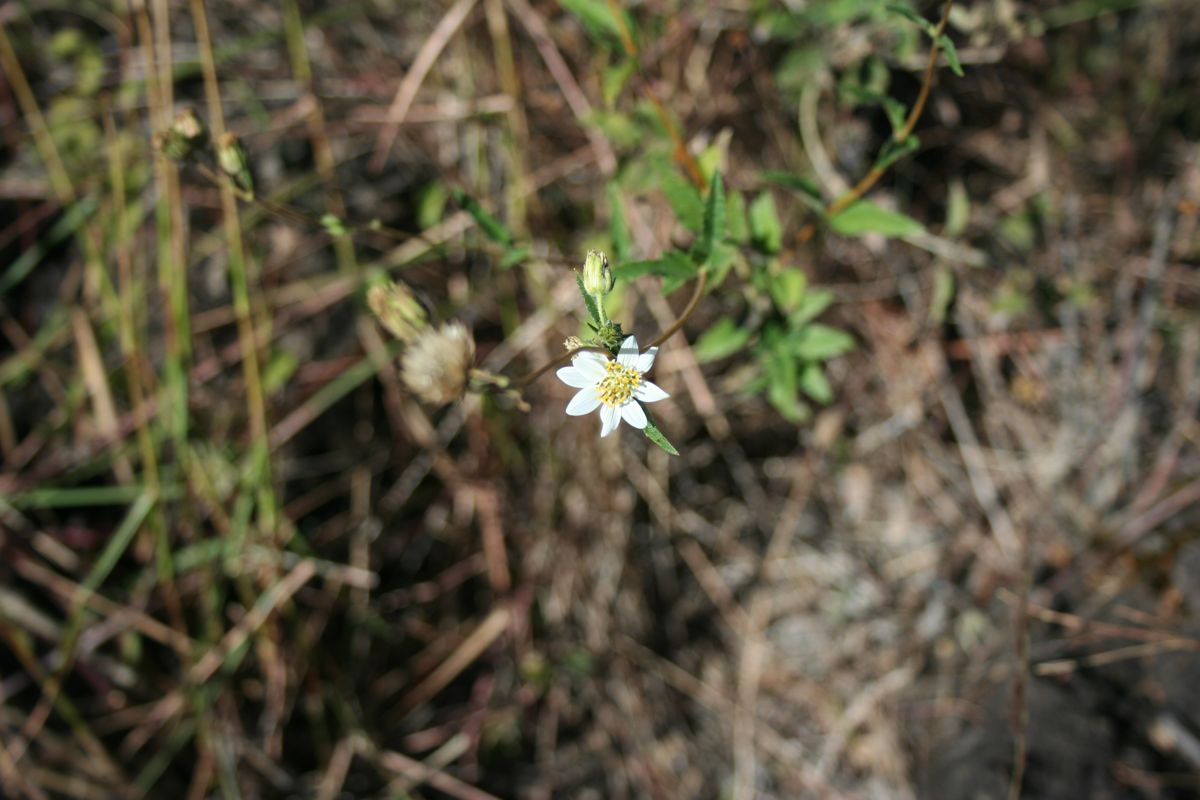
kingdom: Plantae
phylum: Tracheophyta
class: Magnoliopsida
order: Asterales
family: Asteraceae
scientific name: Asteraceae
